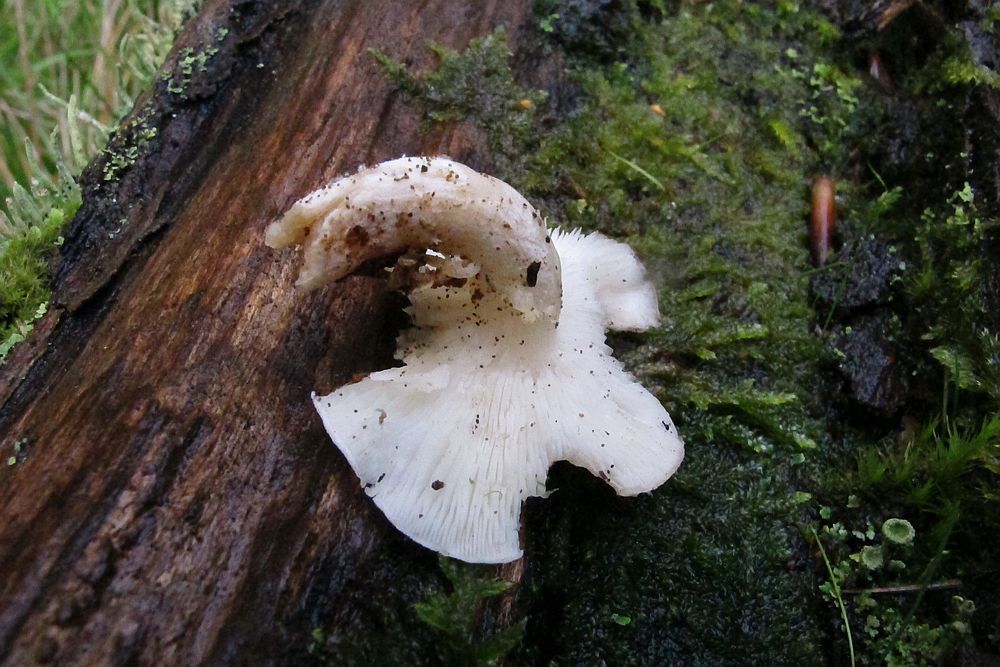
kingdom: Fungi
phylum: Basidiomycota
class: Agaricomycetes
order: Agaricales
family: Lyophyllaceae
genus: Ossicaulis
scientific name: Ossicaulis lignatilis
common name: hvidlig vedtragthat
